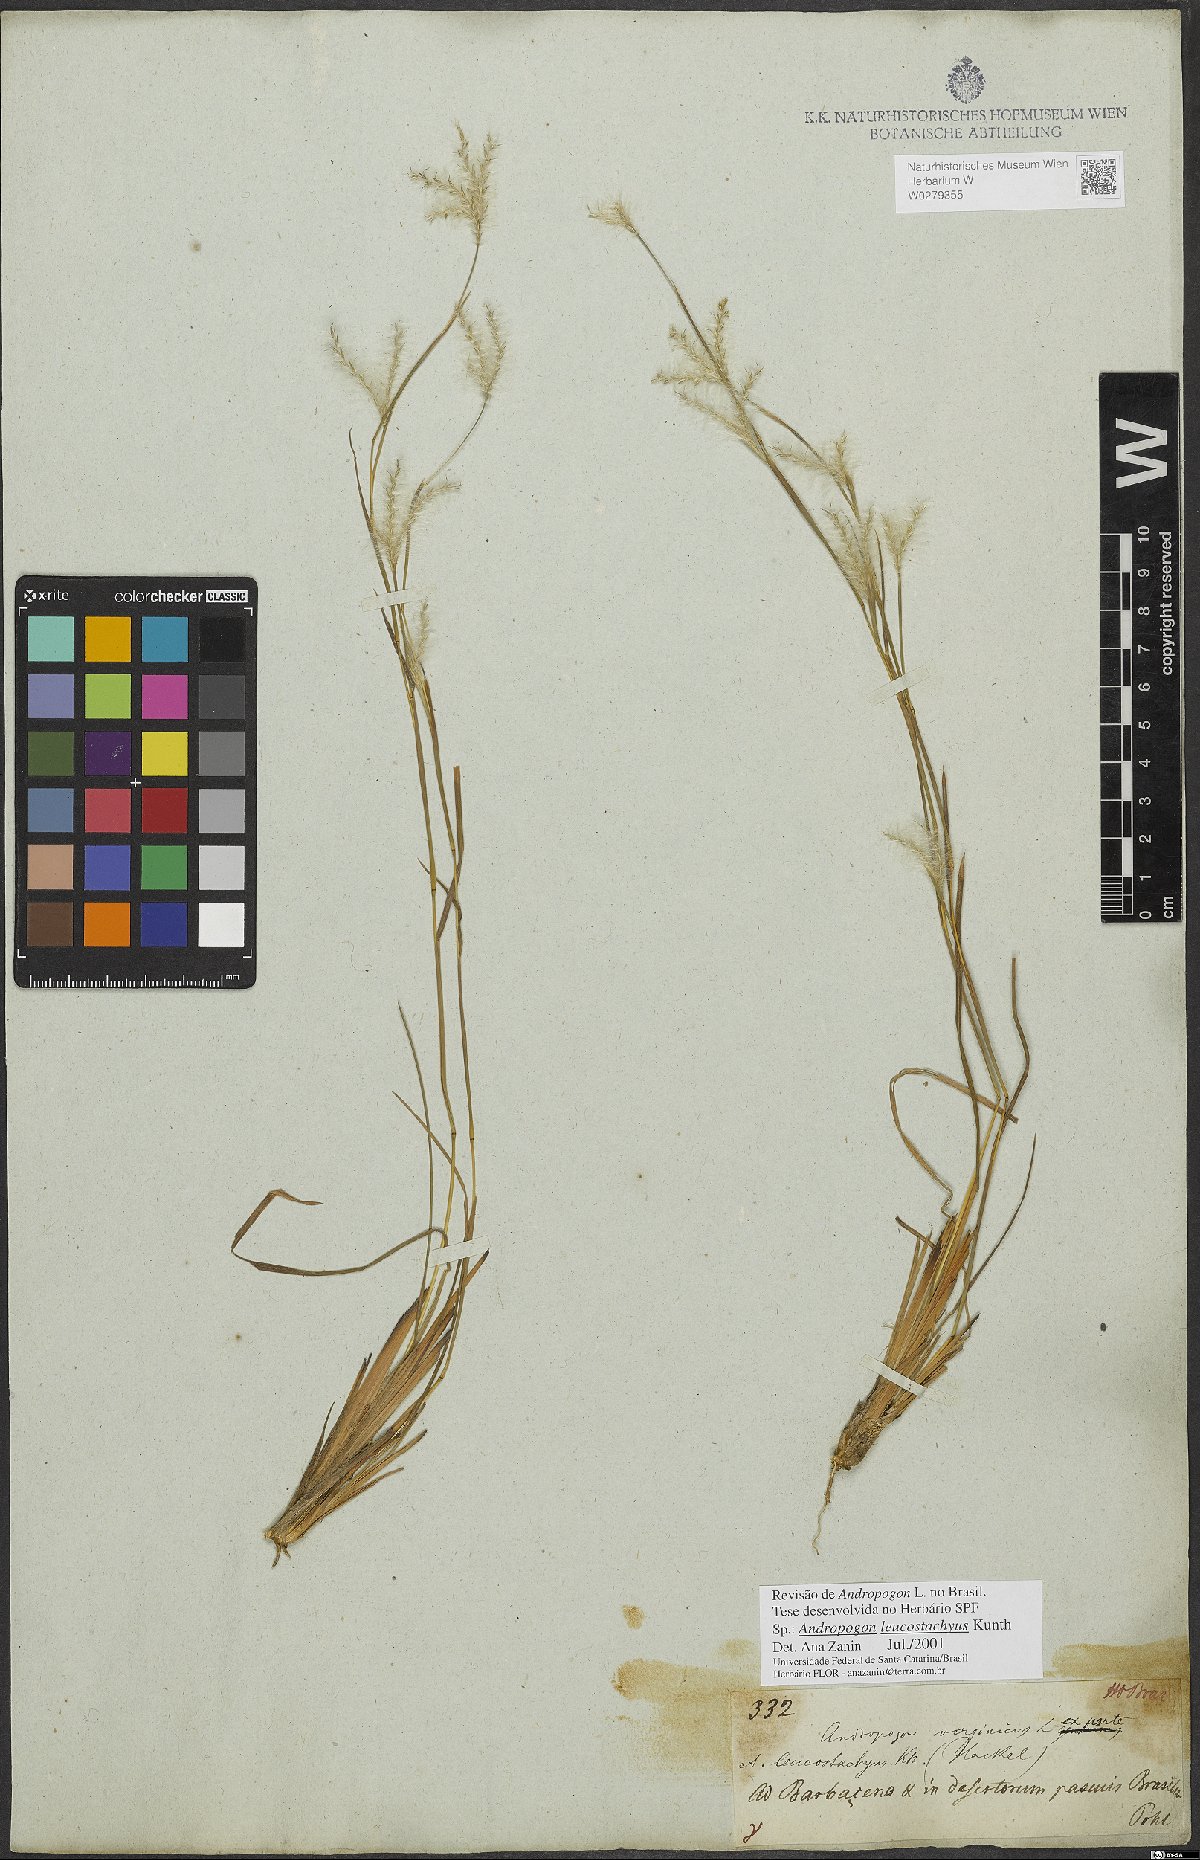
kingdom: Plantae
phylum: Tracheophyta
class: Liliopsida
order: Poales
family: Poaceae
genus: Andropogon
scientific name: Andropogon leucostachyus
